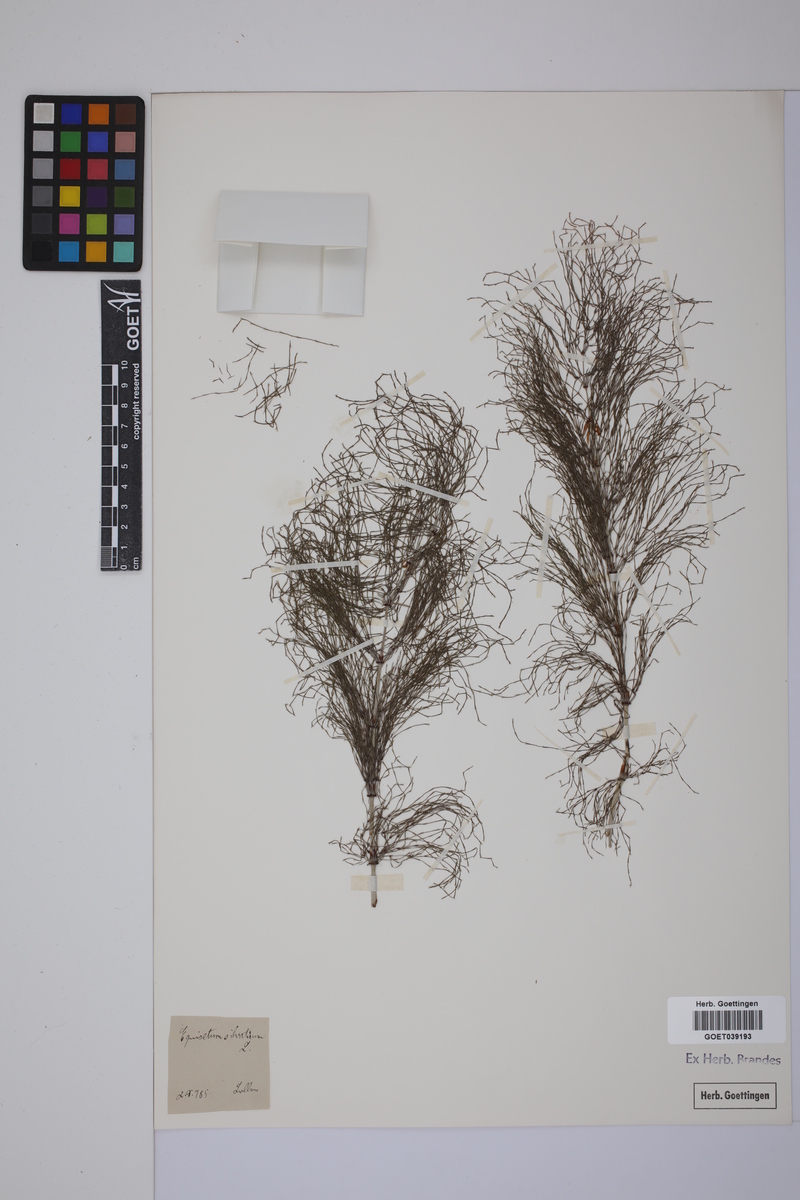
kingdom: Plantae
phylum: Tracheophyta
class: Polypodiopsida
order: Equisetales
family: Equisetaceae
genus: Equisetum
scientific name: Equisetum sylvaticum
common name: Wood horsetail
